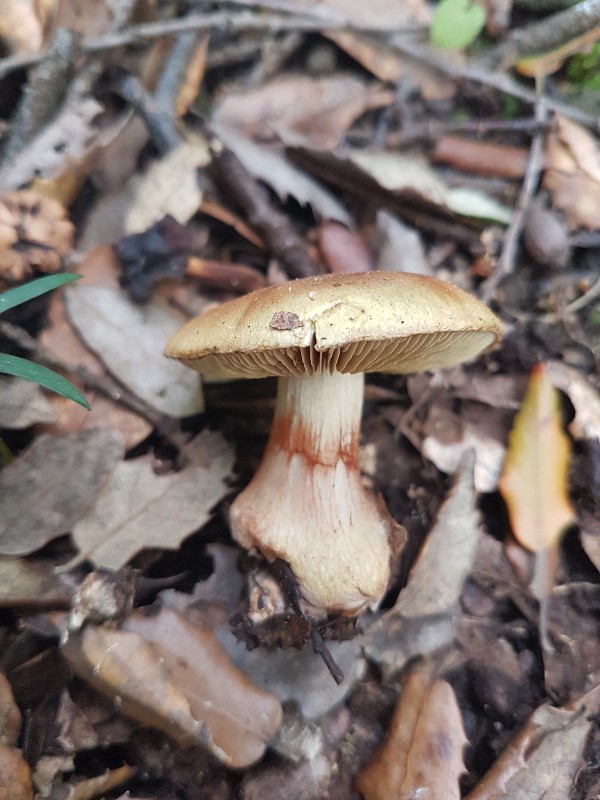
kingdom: Fungi
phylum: Basidiomycota
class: Agaricomycetes
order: Agaricales
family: Cortinariaceae
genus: Calonarius
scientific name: Calonarius prasinus
